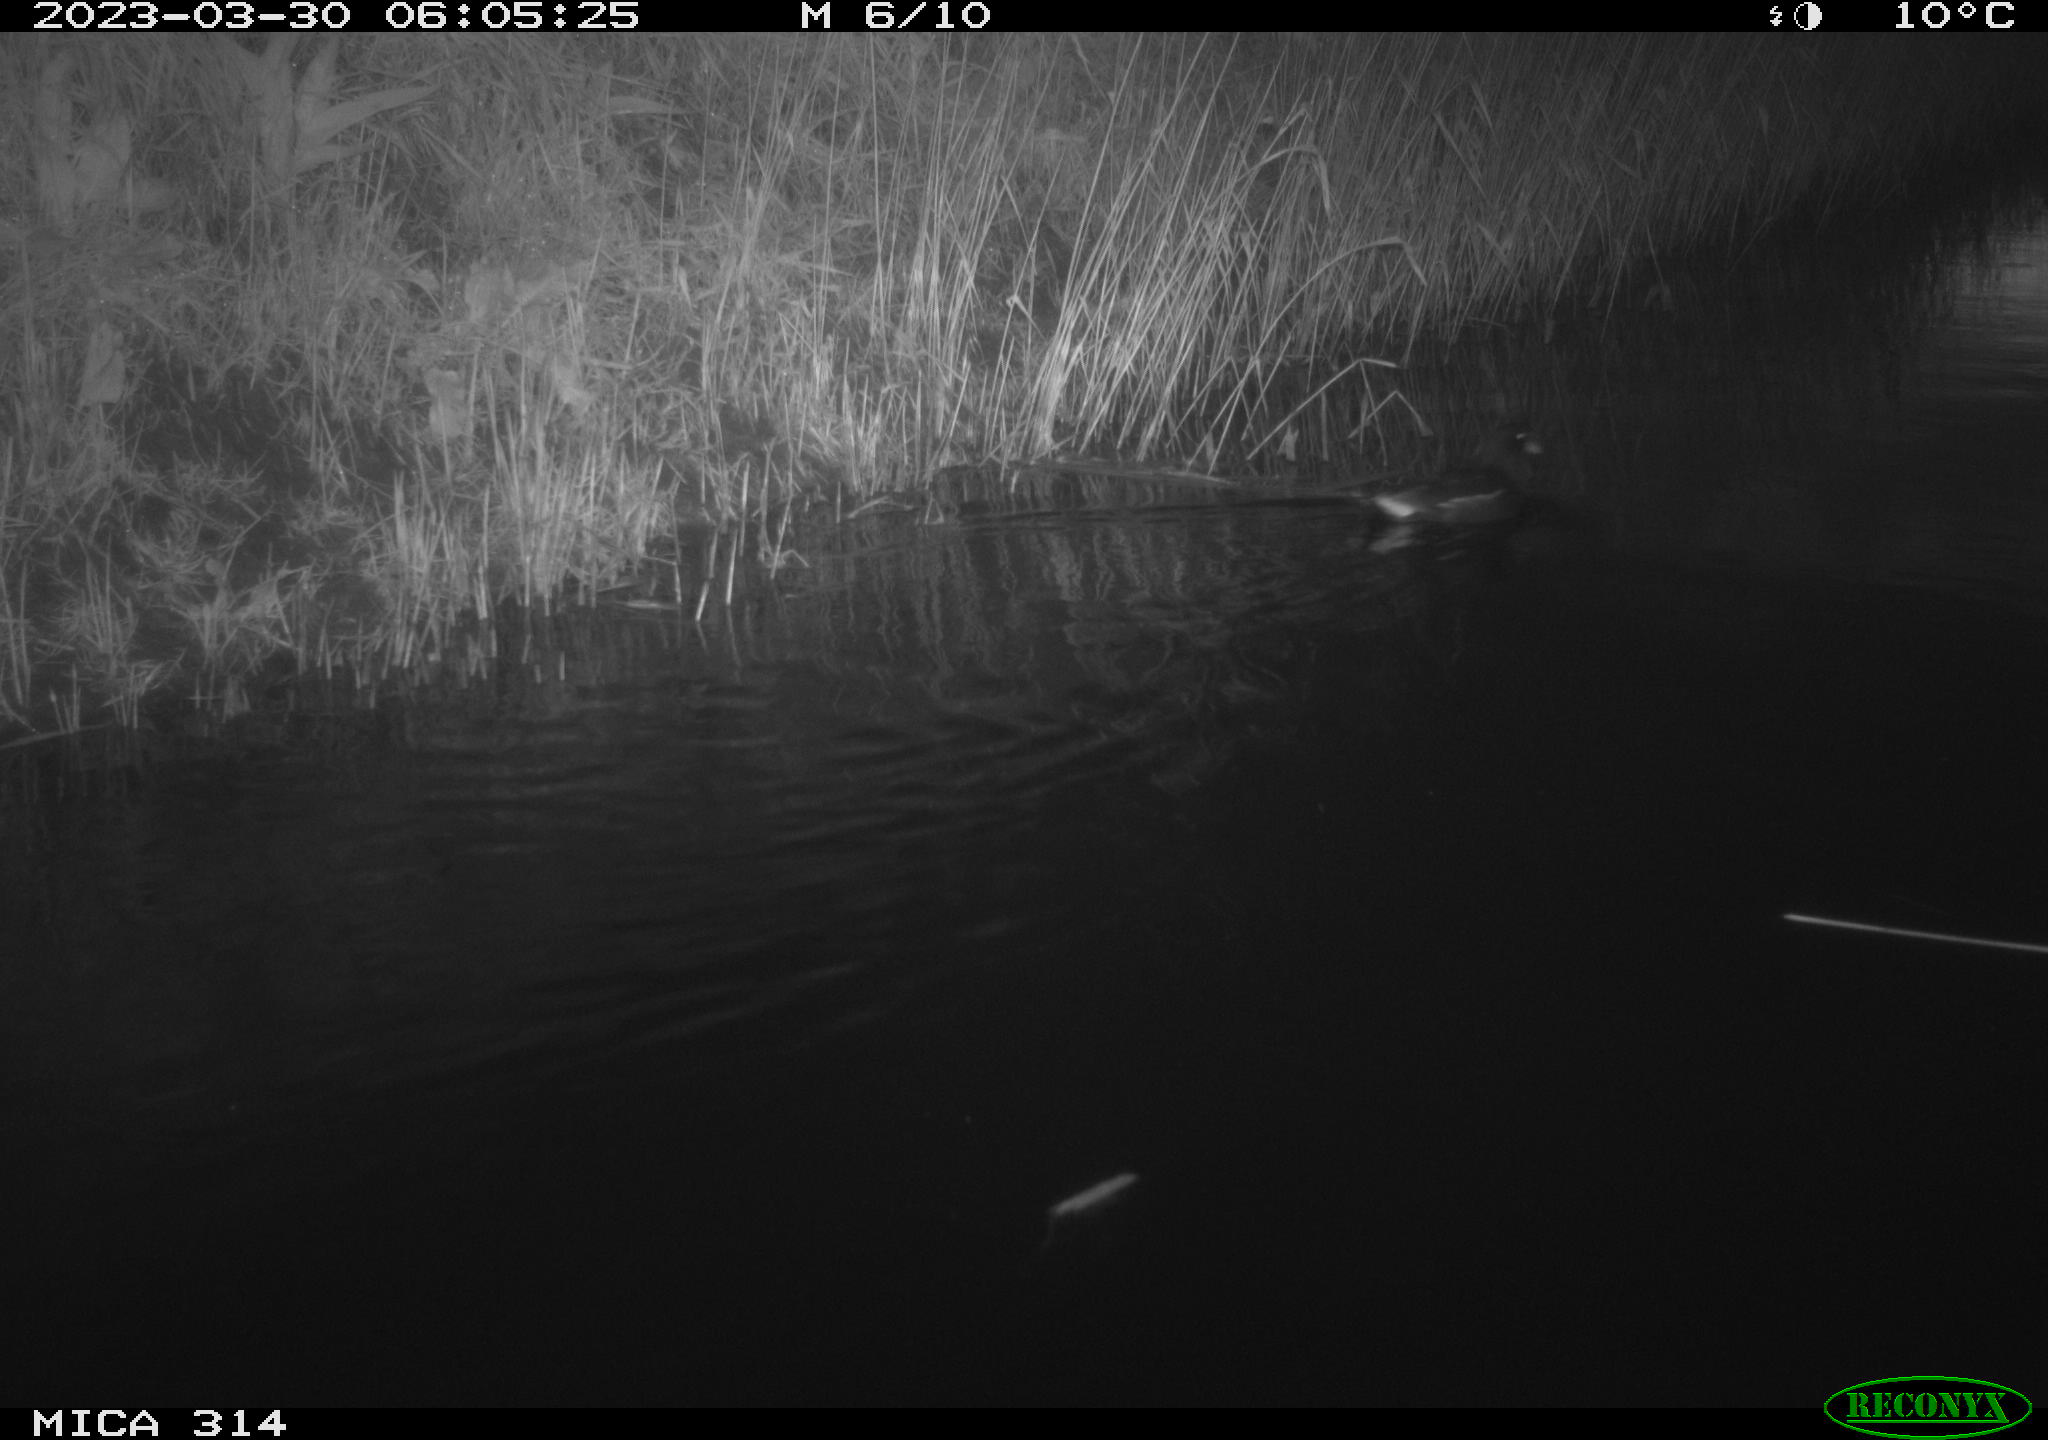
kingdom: Animalia
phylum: Chordata
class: Aves
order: Gruiformes
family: Rallidae
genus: Gallinula
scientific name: Gallinula chloropus
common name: Common moorhen
